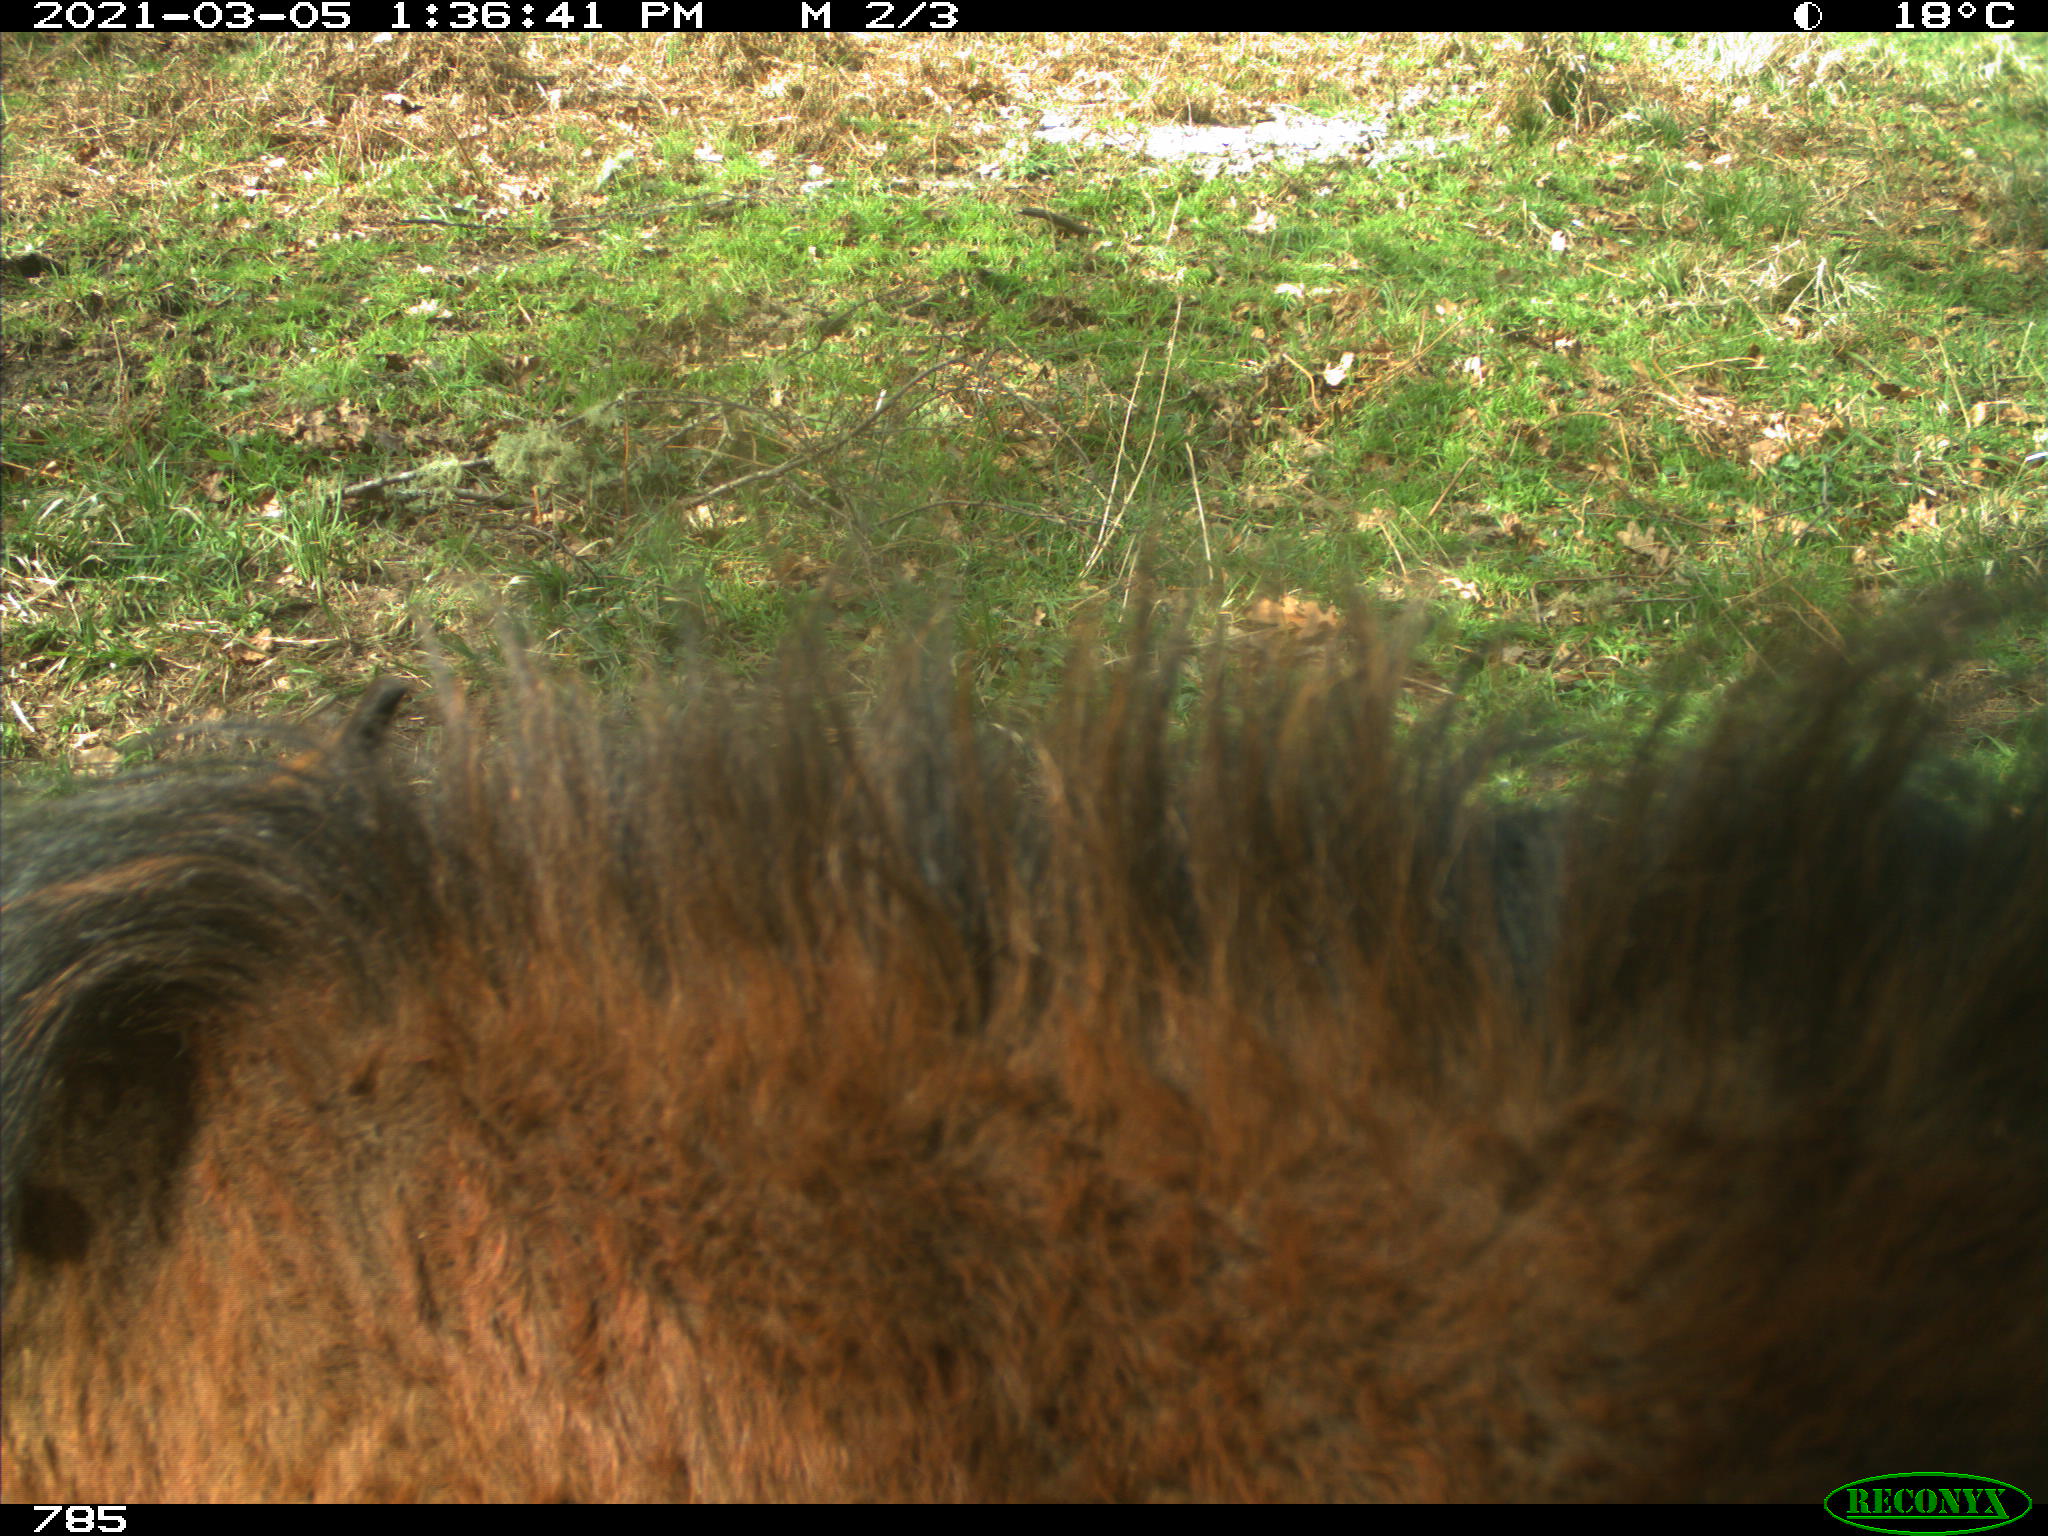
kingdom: Animalia
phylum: Chordata
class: Mammalia
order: Perissodactyla
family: Equidae
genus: Equus
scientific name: Equus caballus
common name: Horse
